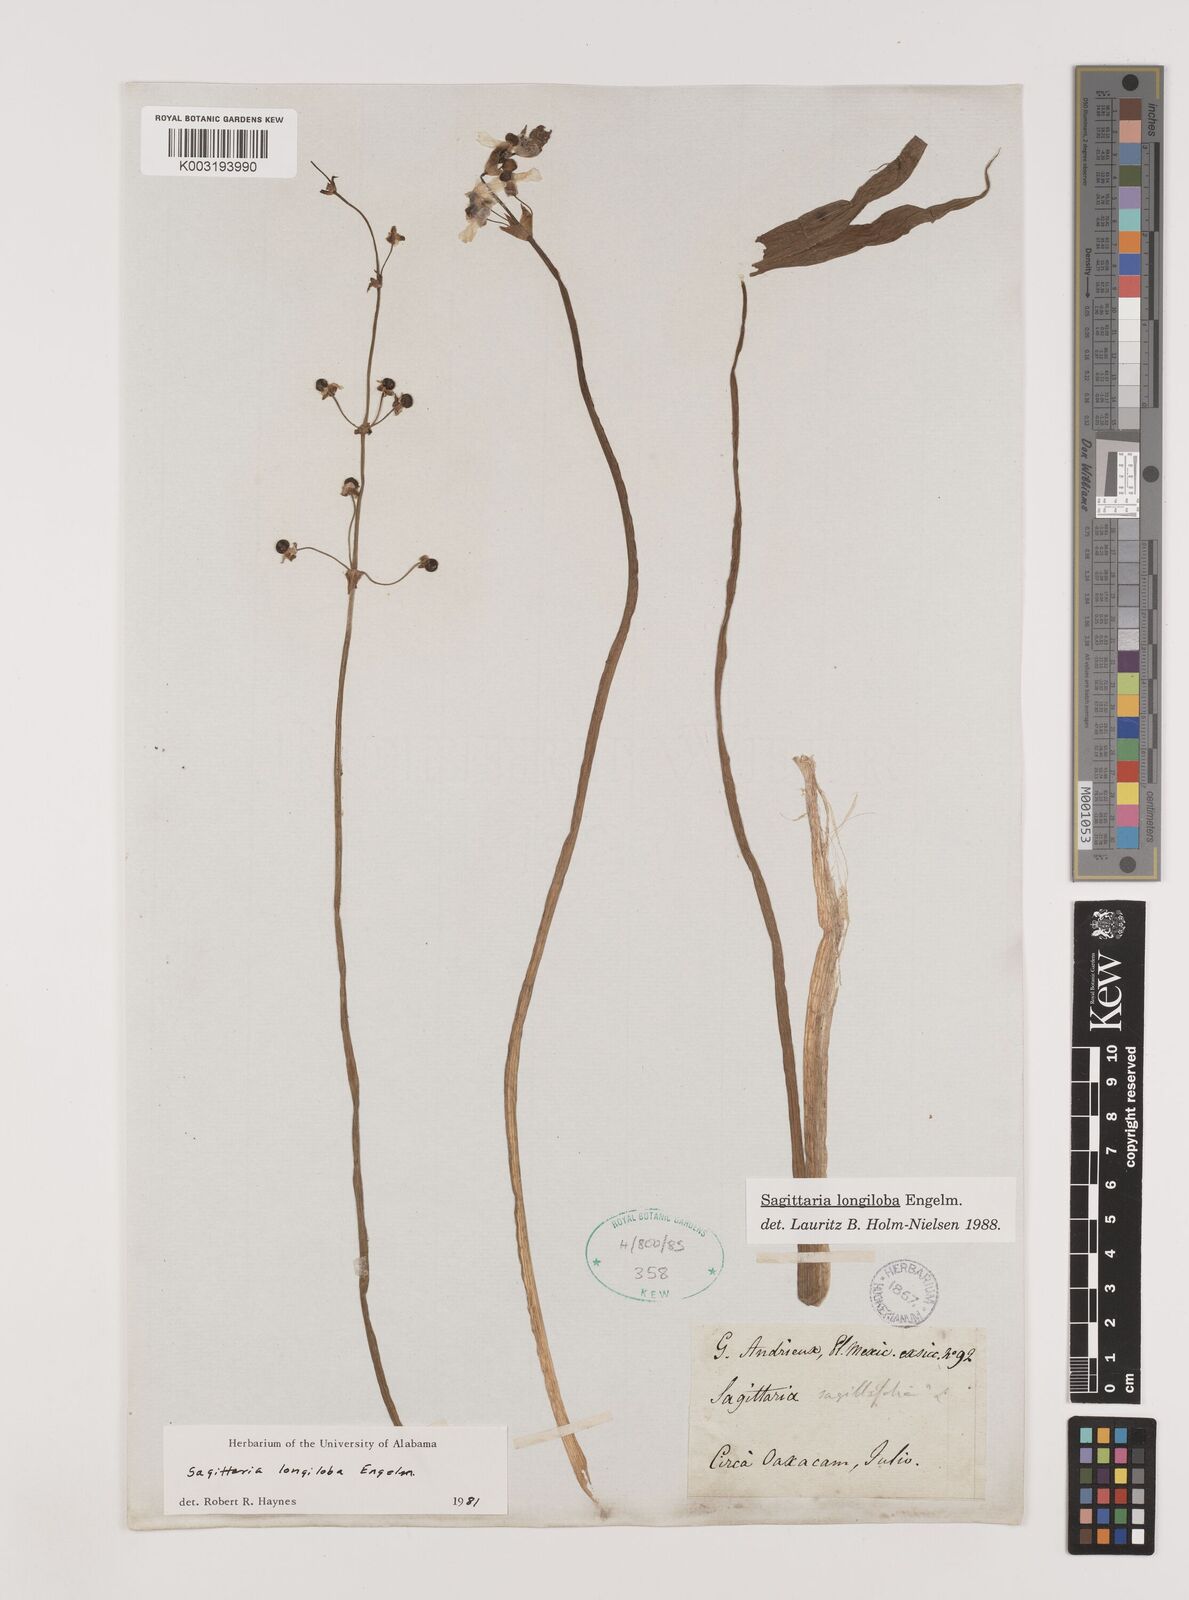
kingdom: Plantae
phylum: Tracheophyta
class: Liliopsida
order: Alismatales
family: Alismataceae
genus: Sagittaria
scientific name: Sagittaria longiloba
